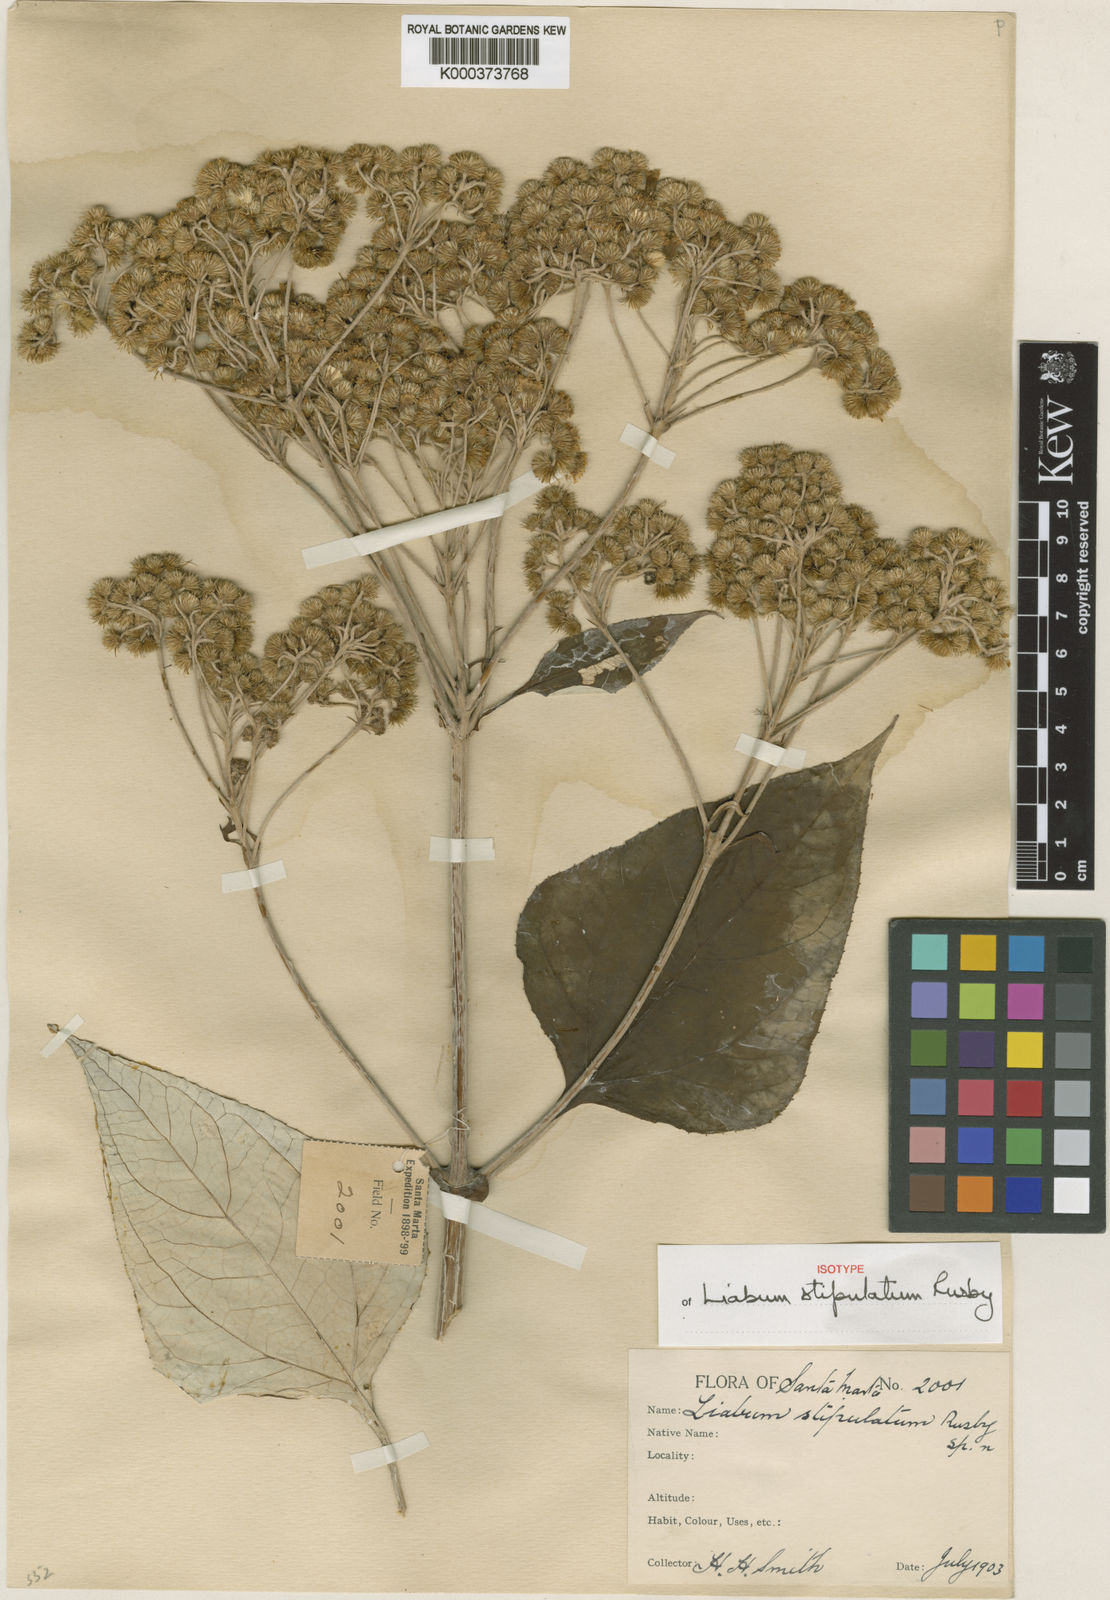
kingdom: Plantae
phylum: Tracheophyta
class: Magnoliopsida
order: Asterales
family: Asteraceae
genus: Liabum
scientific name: Liabum stipulatum
